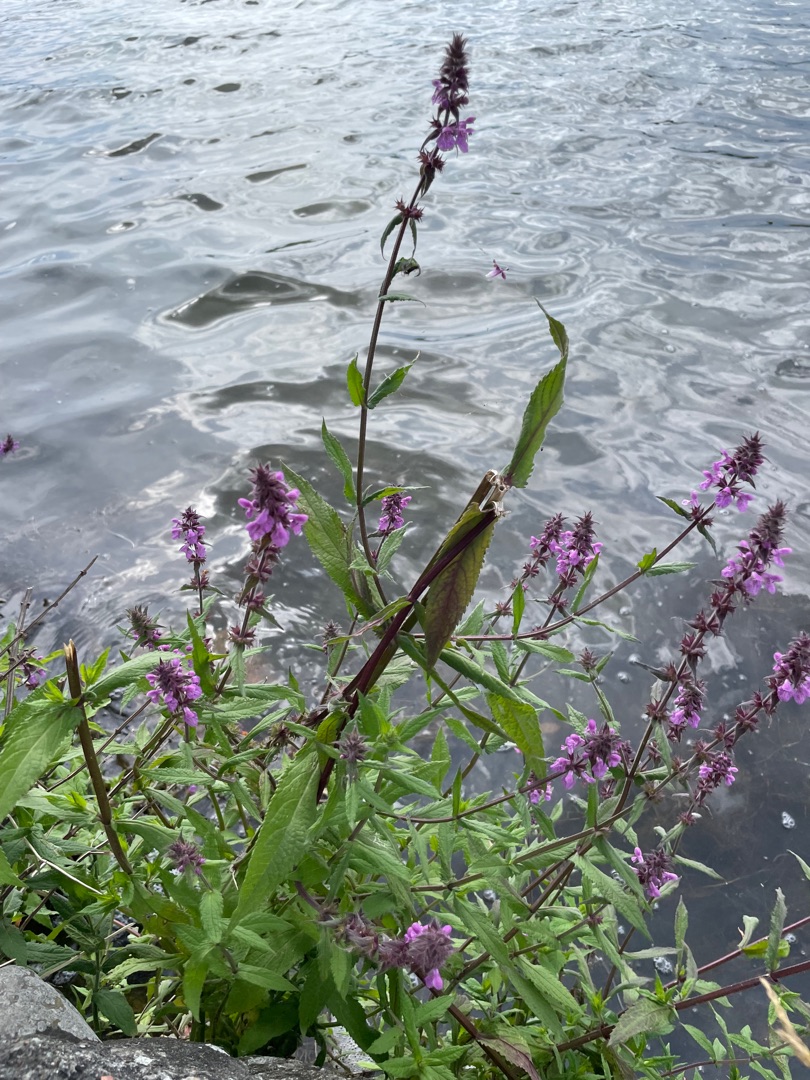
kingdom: Plantae
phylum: Tracheophyta
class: Magnoliopsida
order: Lamiales
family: Lamiaceae
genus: Stachys
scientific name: Stachys palustris
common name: Kær-galtetand
